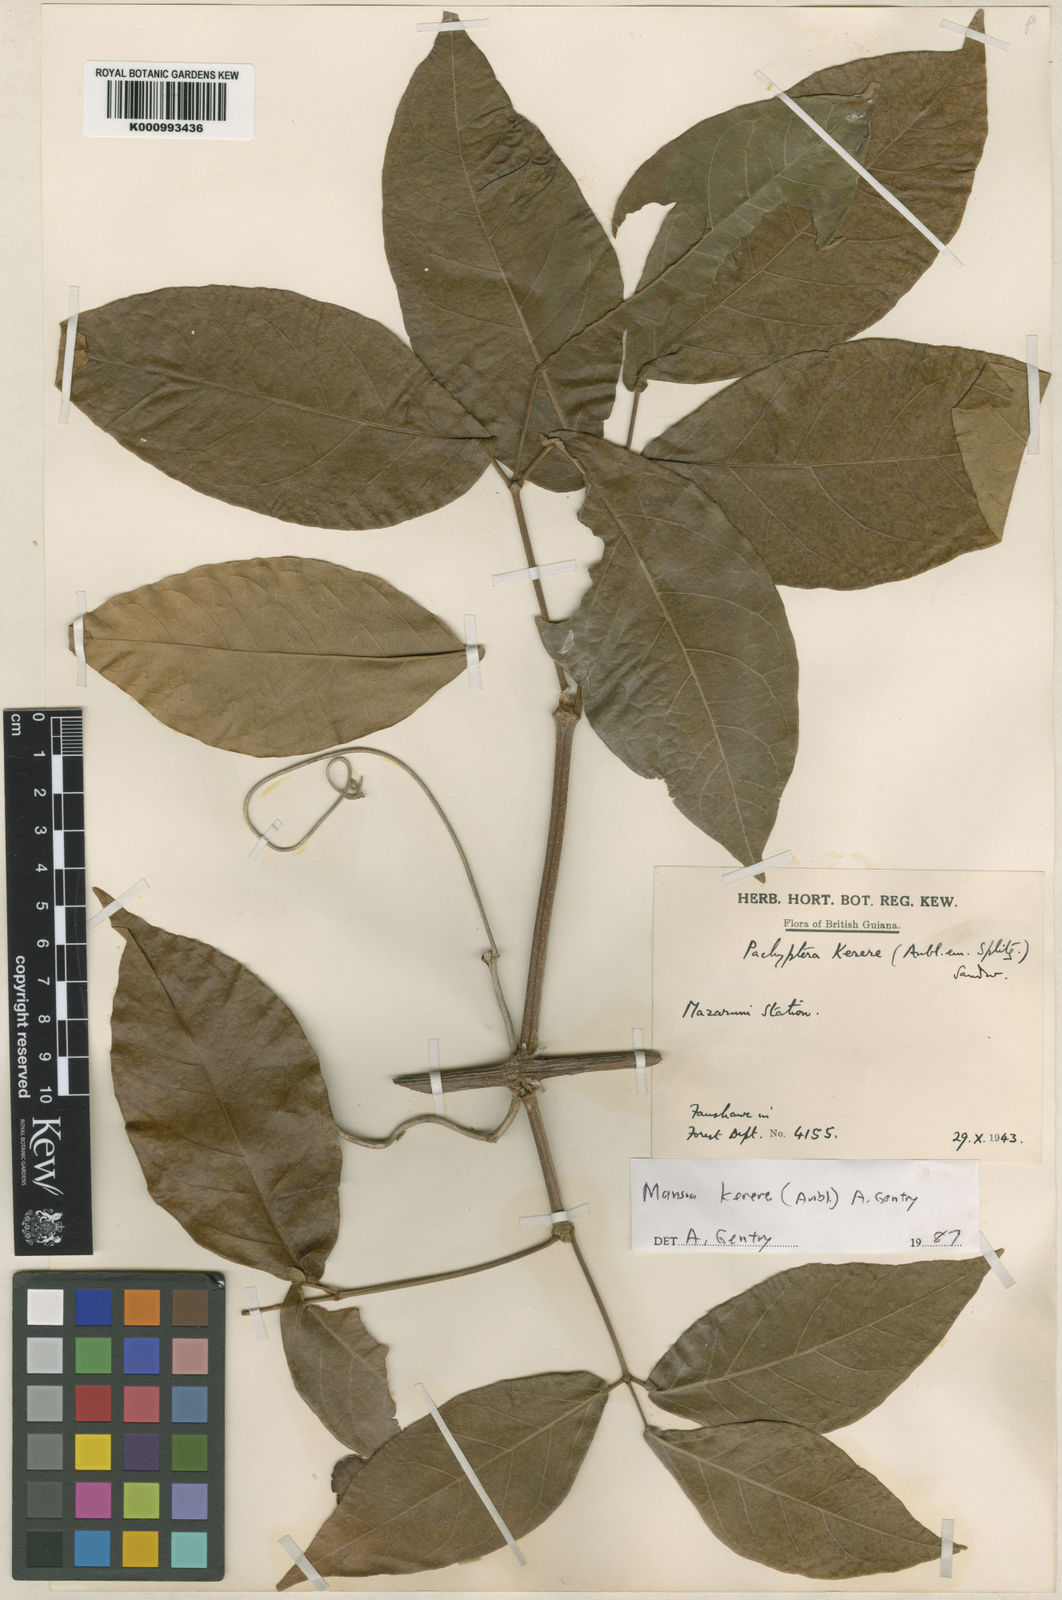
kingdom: Plantae
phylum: Tracheophyta
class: Magnoliopsida
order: Lamiales
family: Bignoniaceae
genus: Pachyptera
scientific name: Pachyptera kerere
